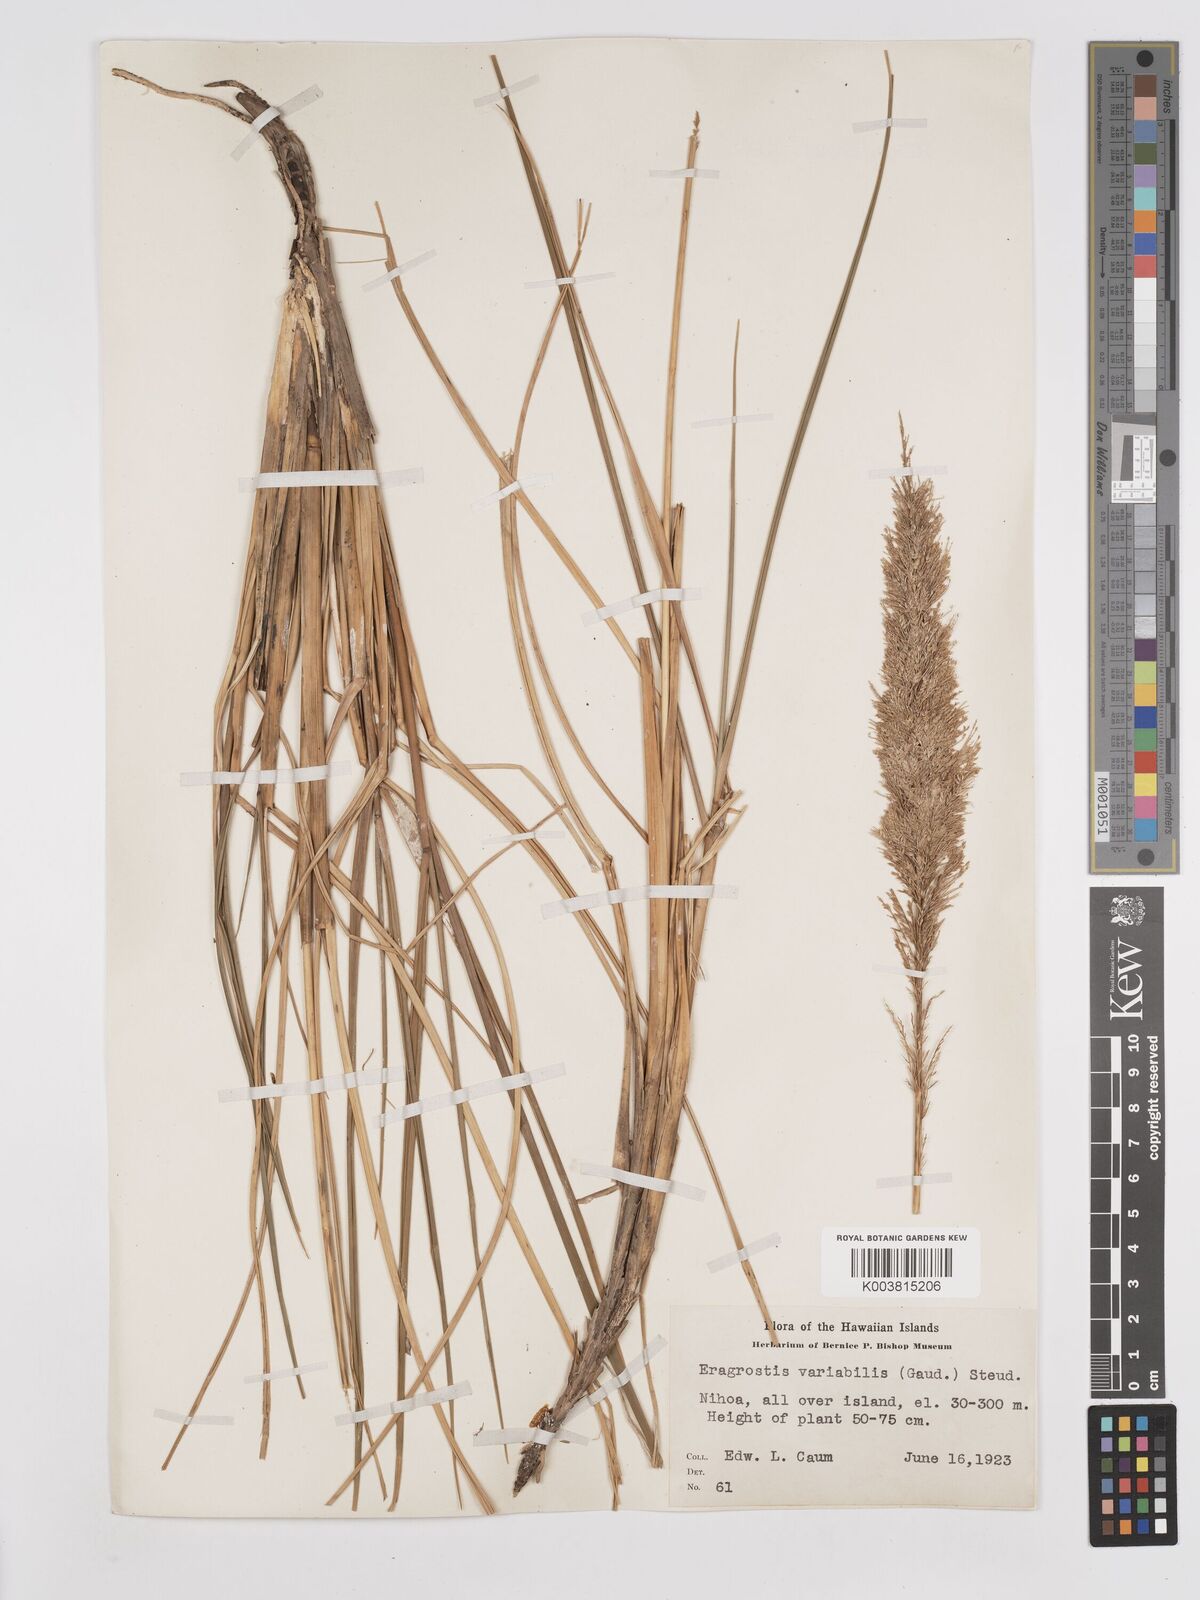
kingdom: Plantae
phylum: Tracheophyta
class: Liliopsida
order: Poales
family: Poaceae
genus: Eragrostis
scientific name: Eragrostis variabilis
